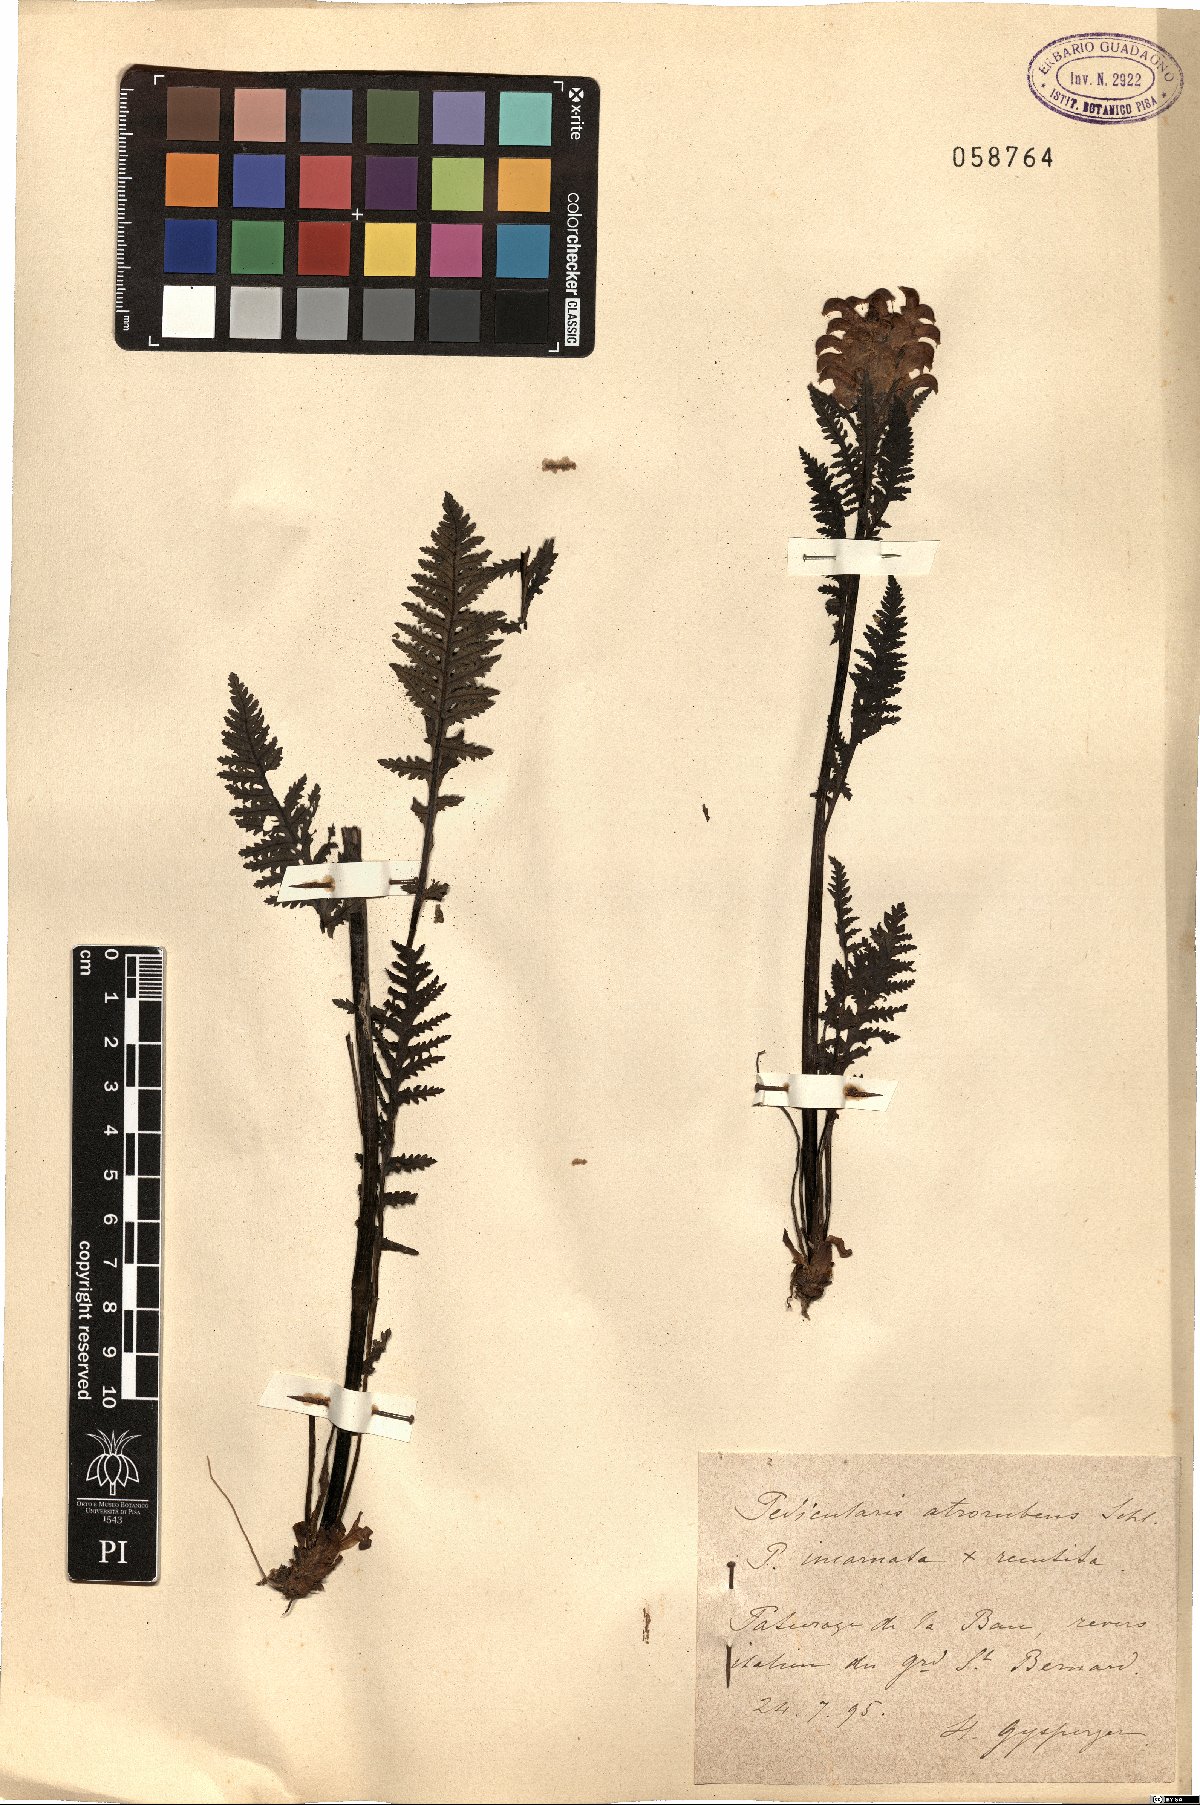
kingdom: Plantae
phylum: Tracheophyta
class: Magnoliopsida
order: Lamiales
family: Orobanchaceae
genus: Pedicularis
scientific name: Pedicularis pennina
